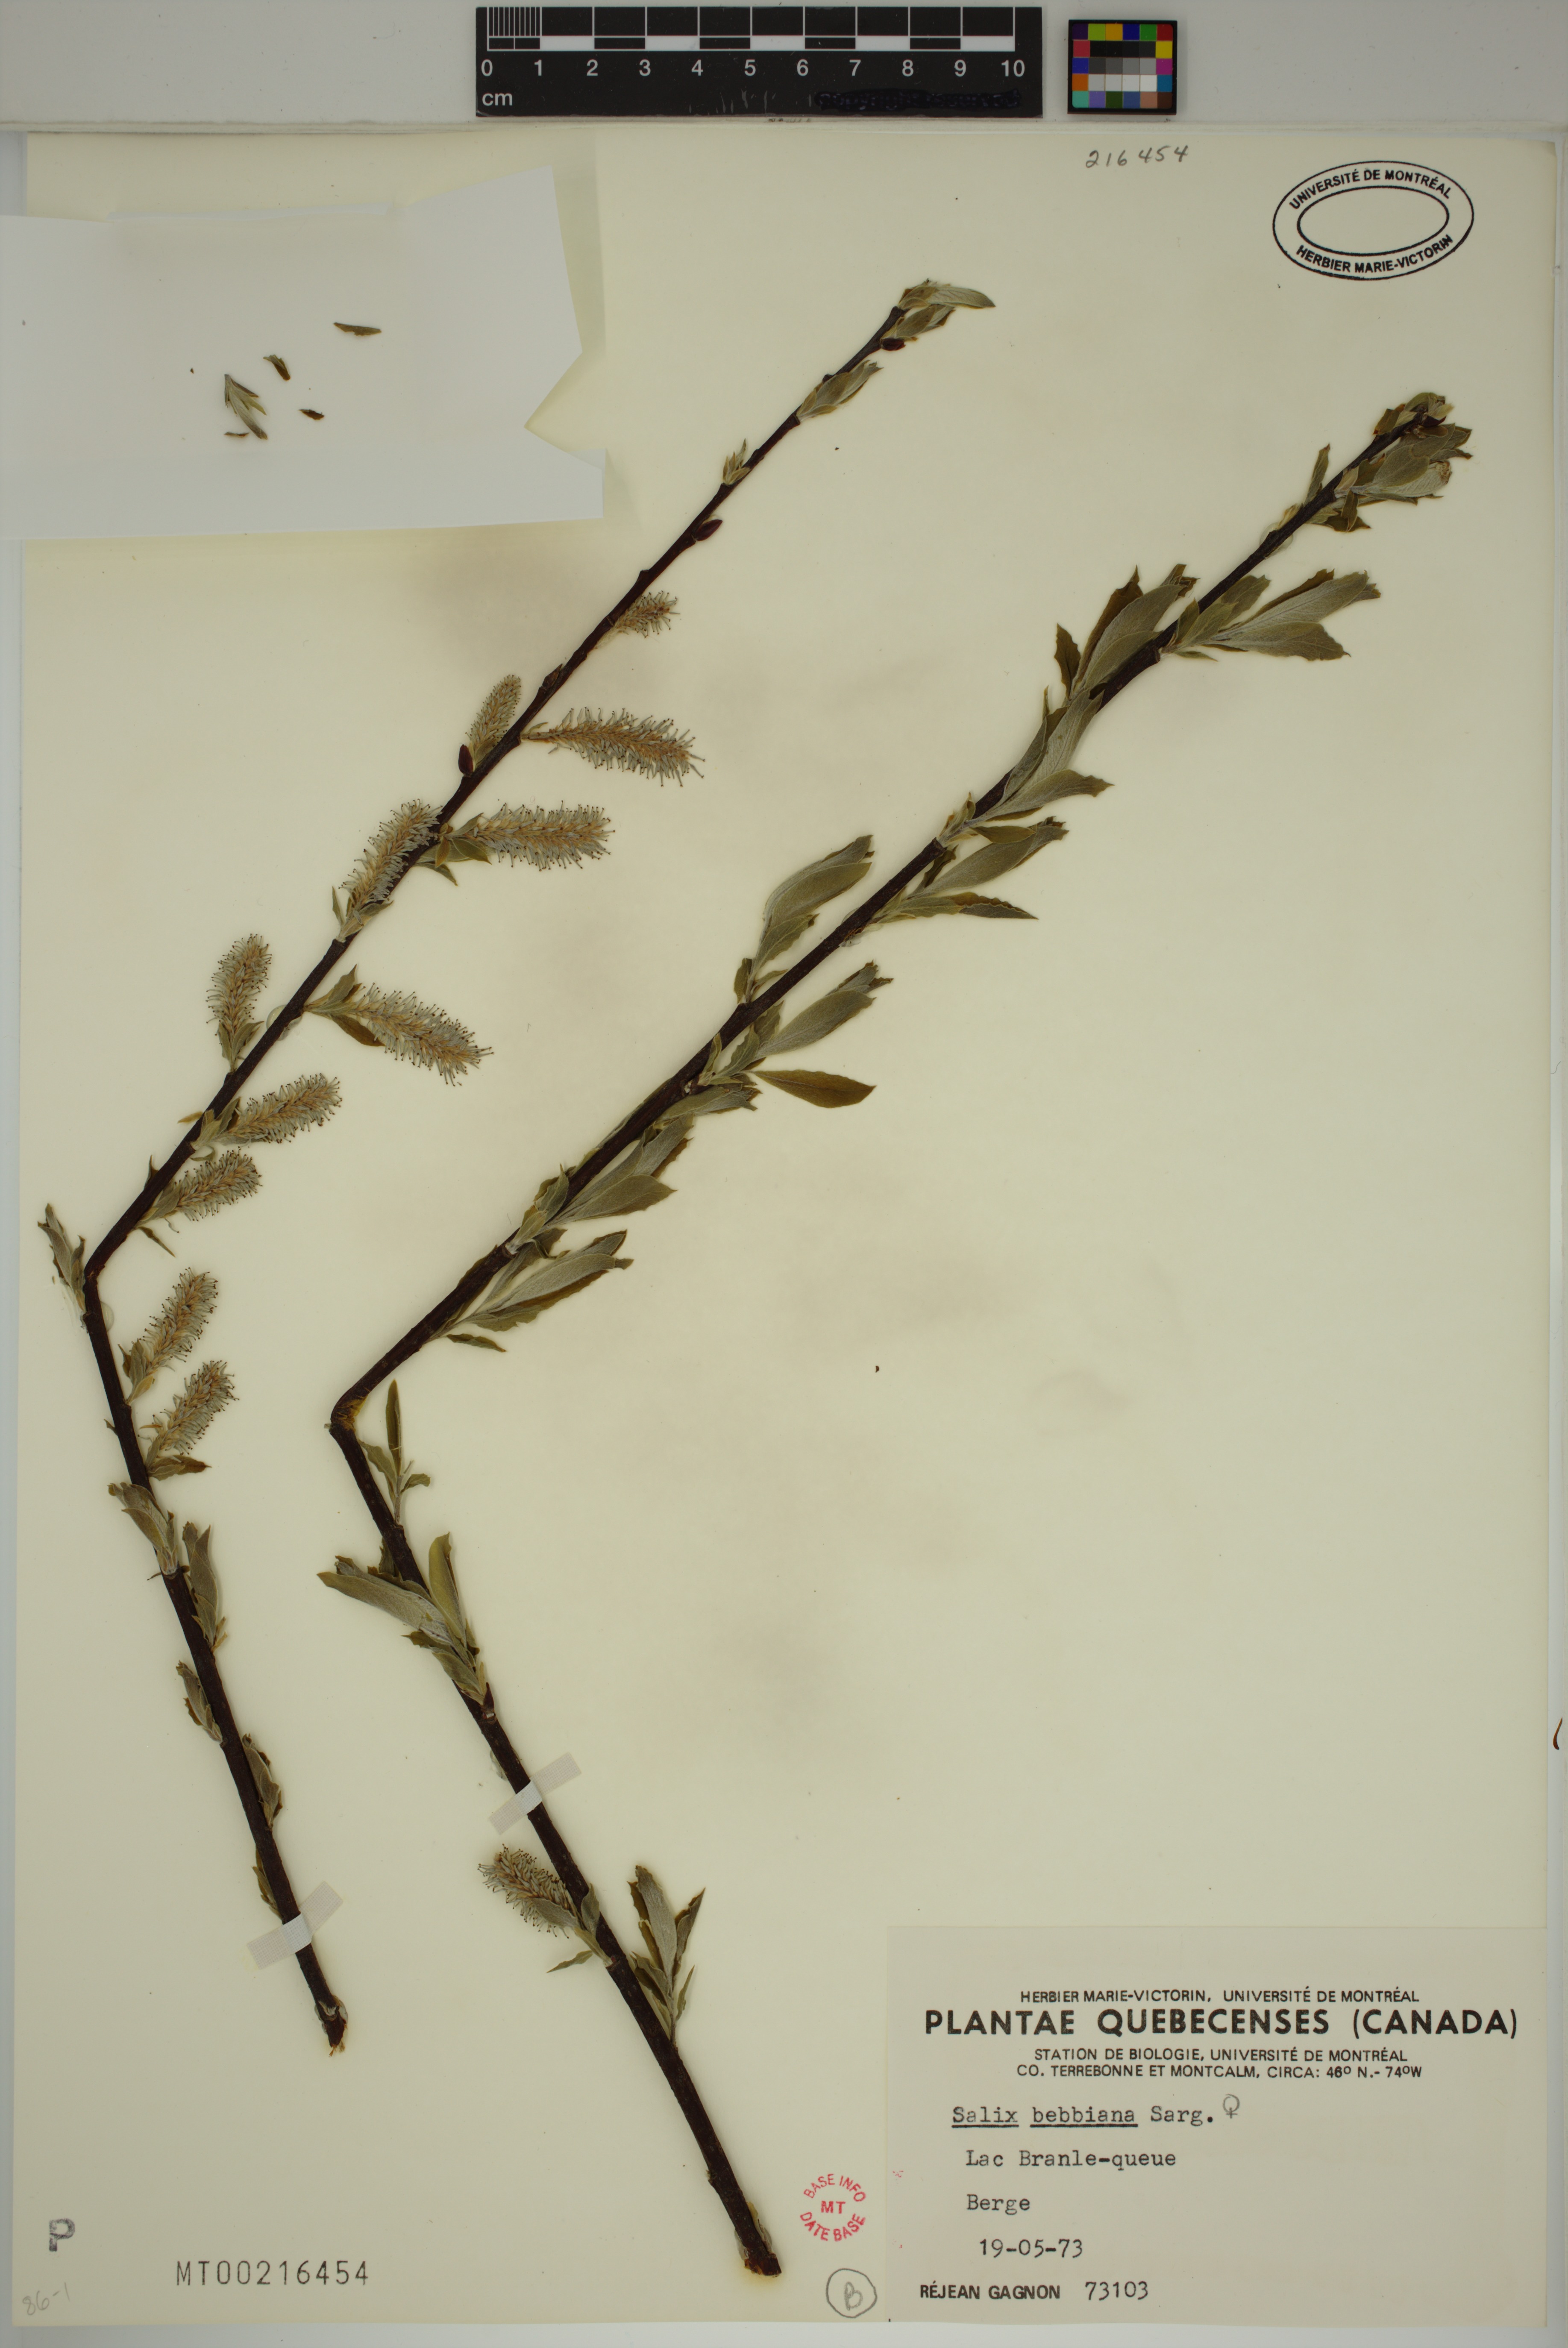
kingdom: Plantae
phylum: Tracheophyta
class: Magnoliopsida
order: Malpighiales
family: Salicaceae
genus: Salix
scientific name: Salix bebbiana
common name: Bebb's willow
